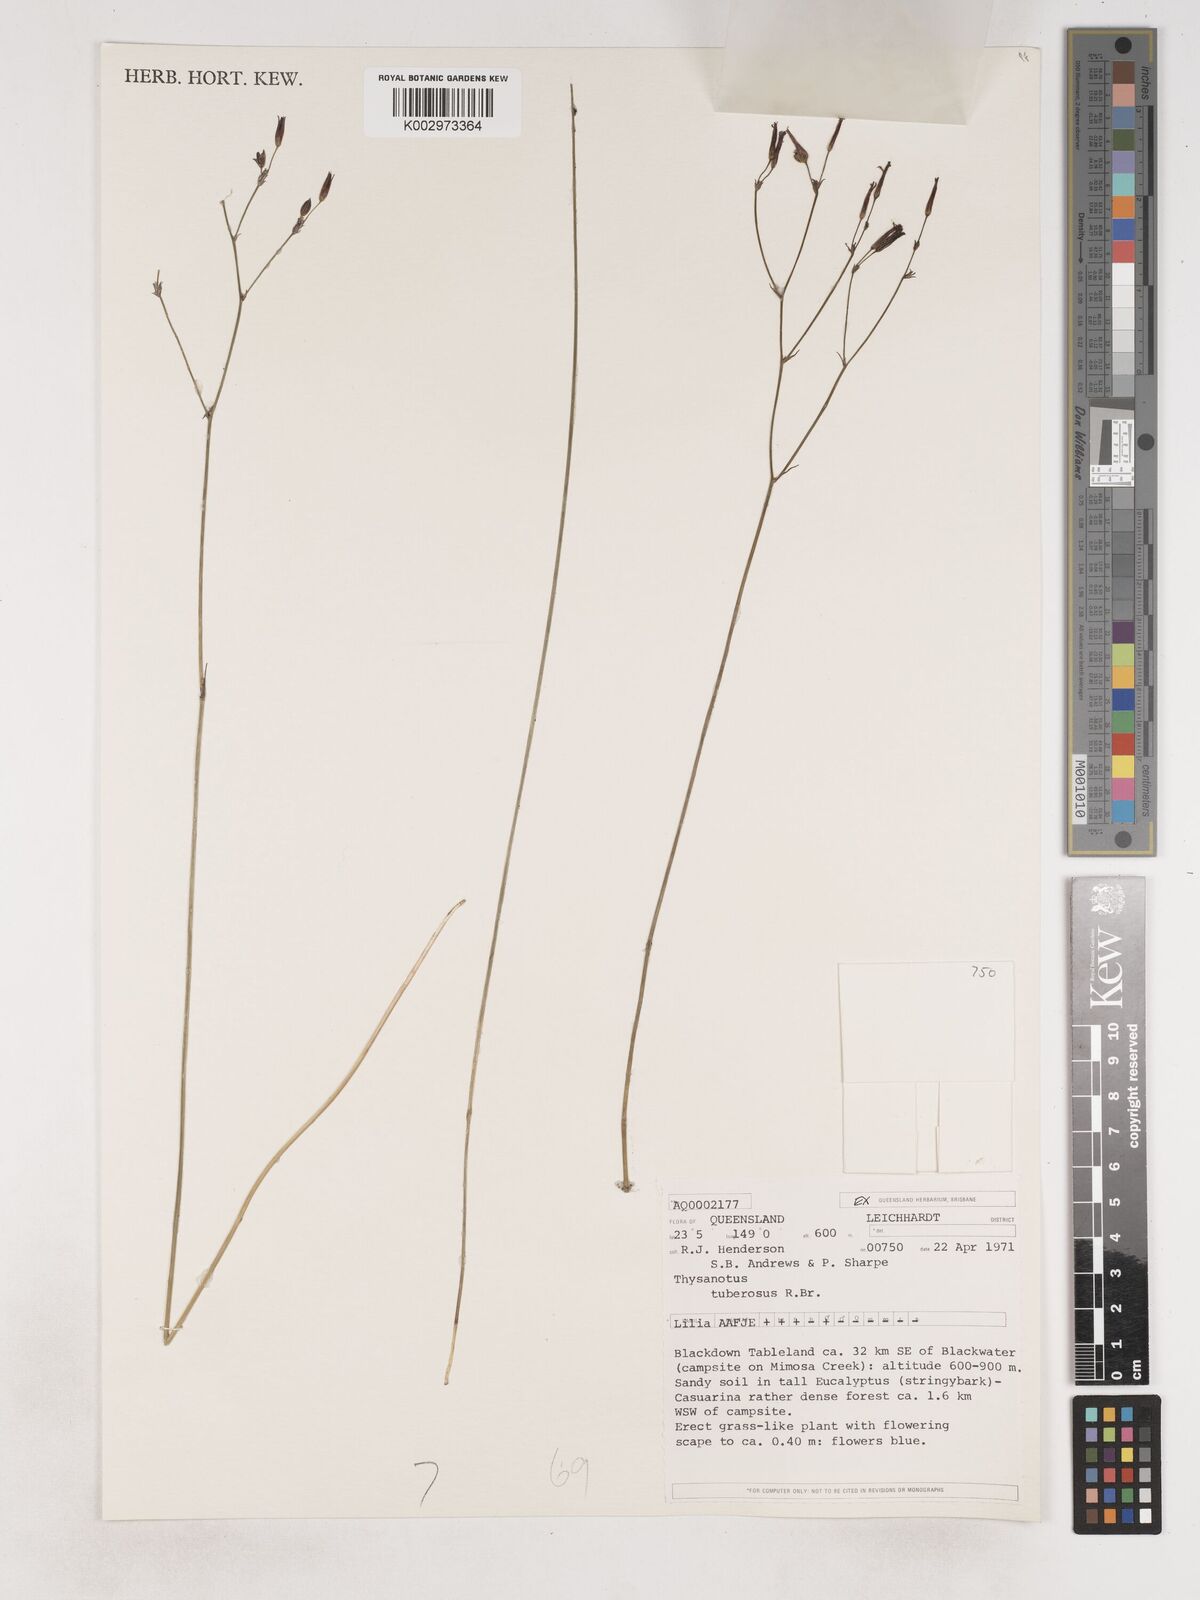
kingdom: Plantae
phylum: Tracheophyta
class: Liliopsida
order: Asparagales
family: Asparagaceae
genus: Thysanotus
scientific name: Thysanotus tuberosus
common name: Common fringed-lily
